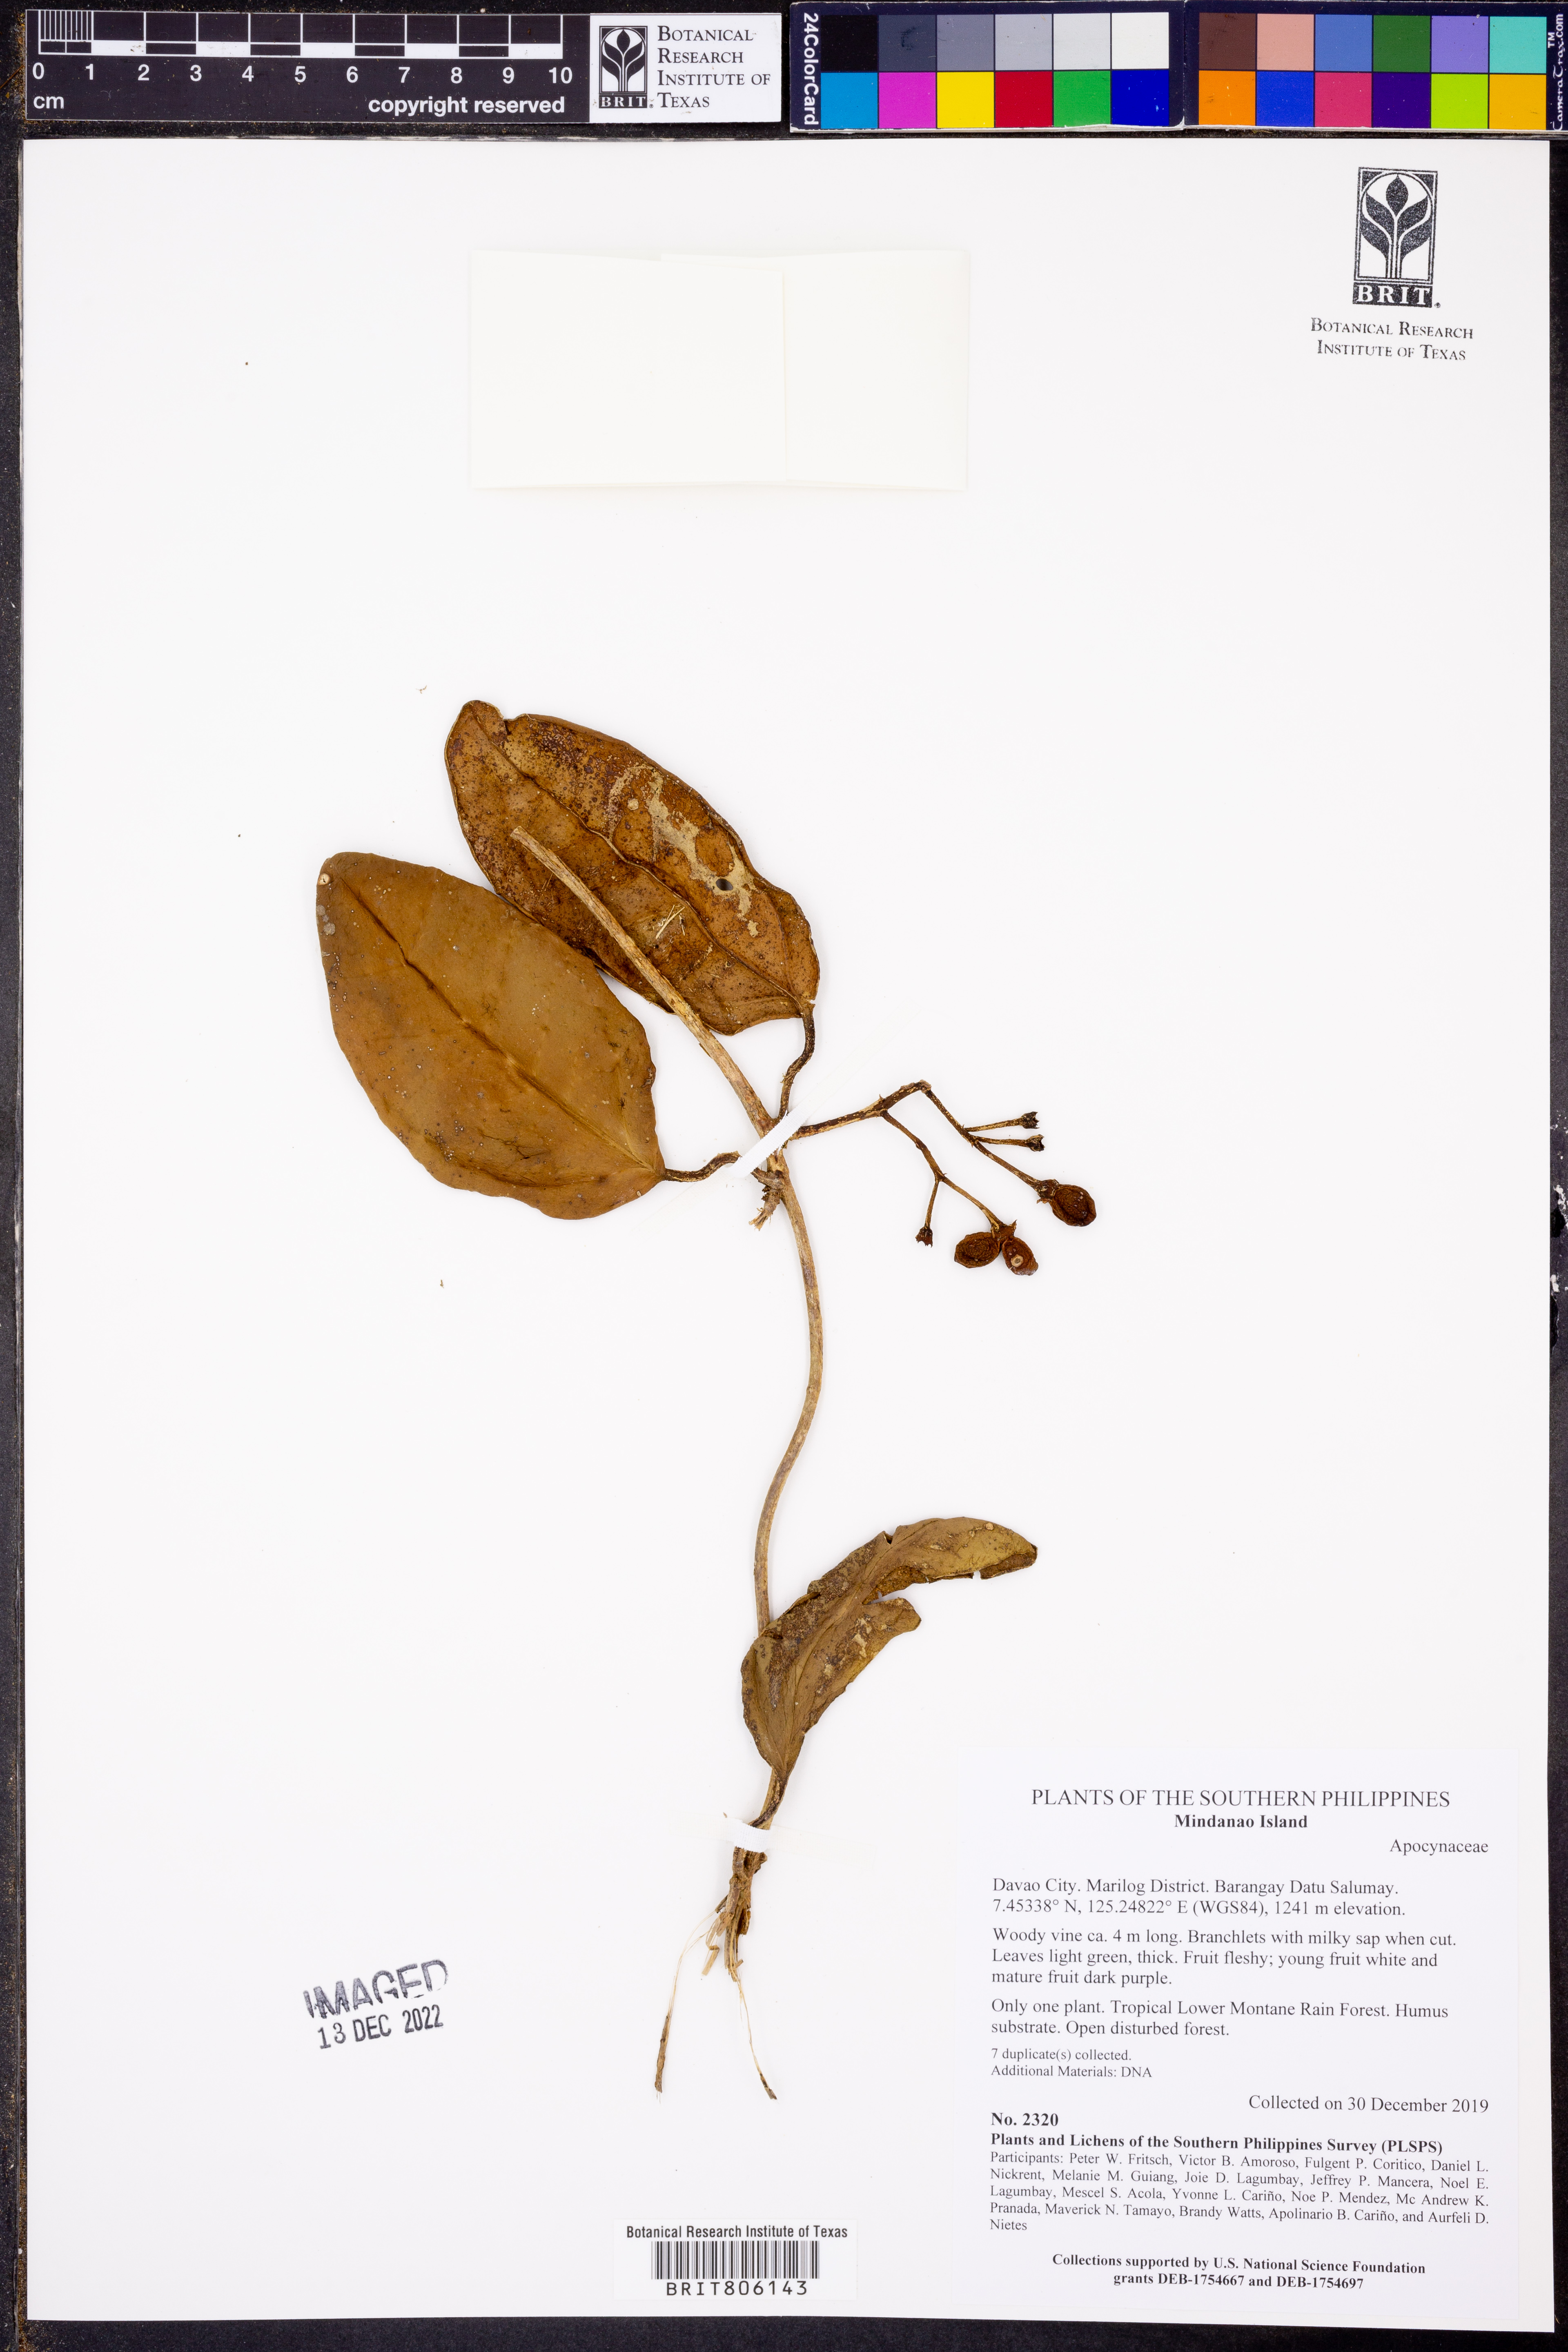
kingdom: Plantae
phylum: Tracheophyta
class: Magnoliopsida
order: Gentianales
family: Apocynaceae
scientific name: Apocynaceae
